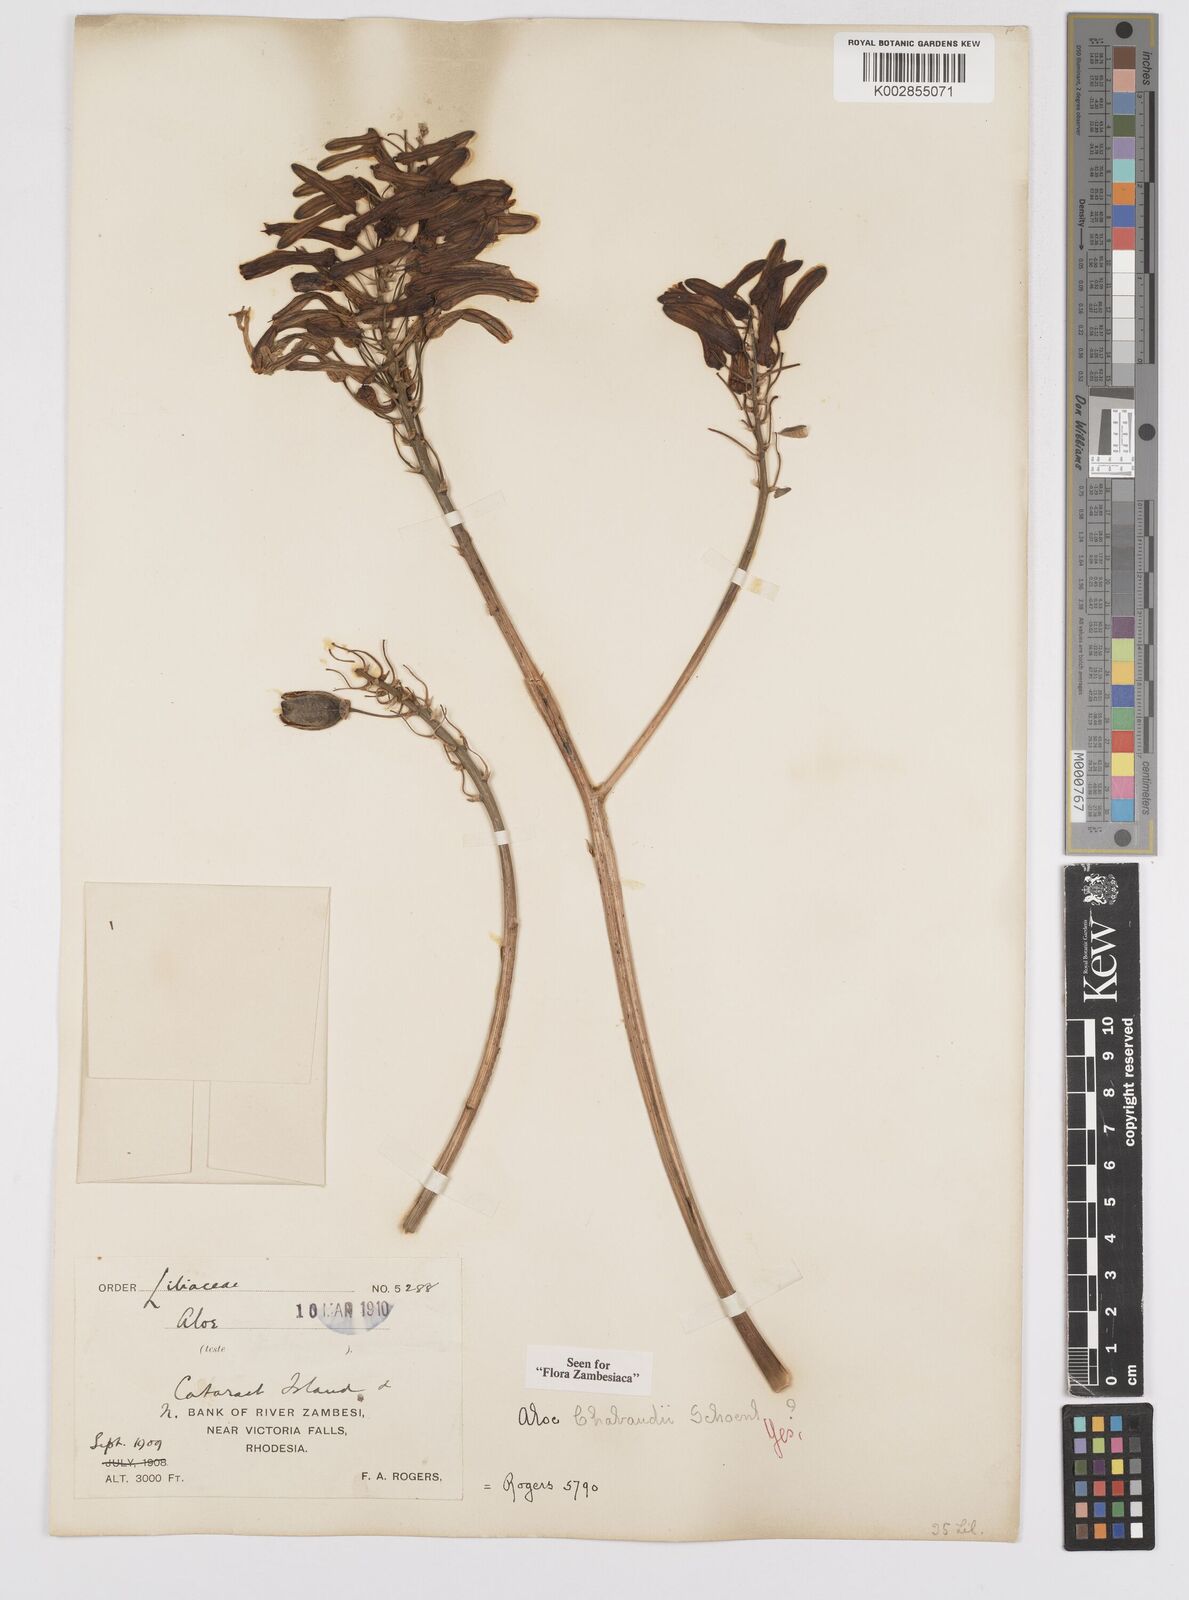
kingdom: Plantae
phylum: Tracheophyta
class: Liliopsida
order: Asparagales
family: Asphodelaceae
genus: Aloe
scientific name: Aloe chabaudii
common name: Chabaud's aloe
